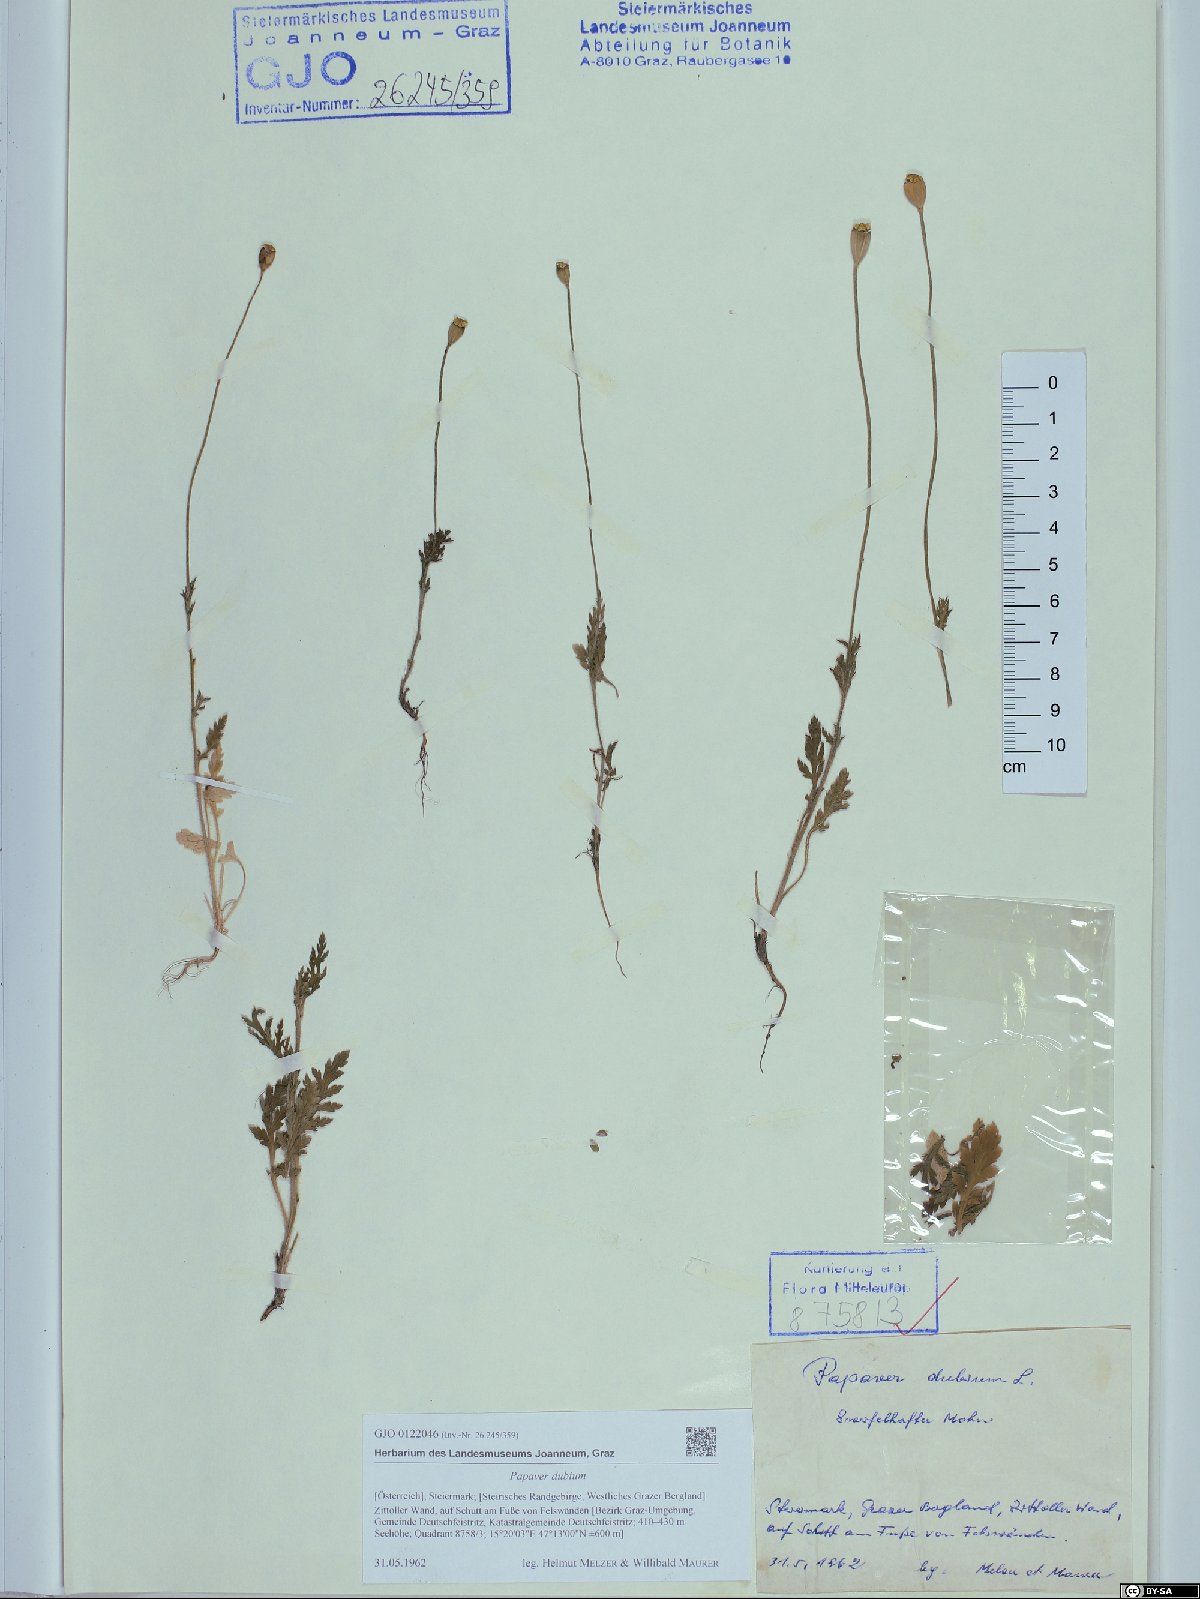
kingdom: Plantae
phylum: Tracheophyta
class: Magnoliopsida
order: Ranunculales
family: Papaveraceae
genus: Papaver
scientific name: Papaver dubium
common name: Long-headed poppy
